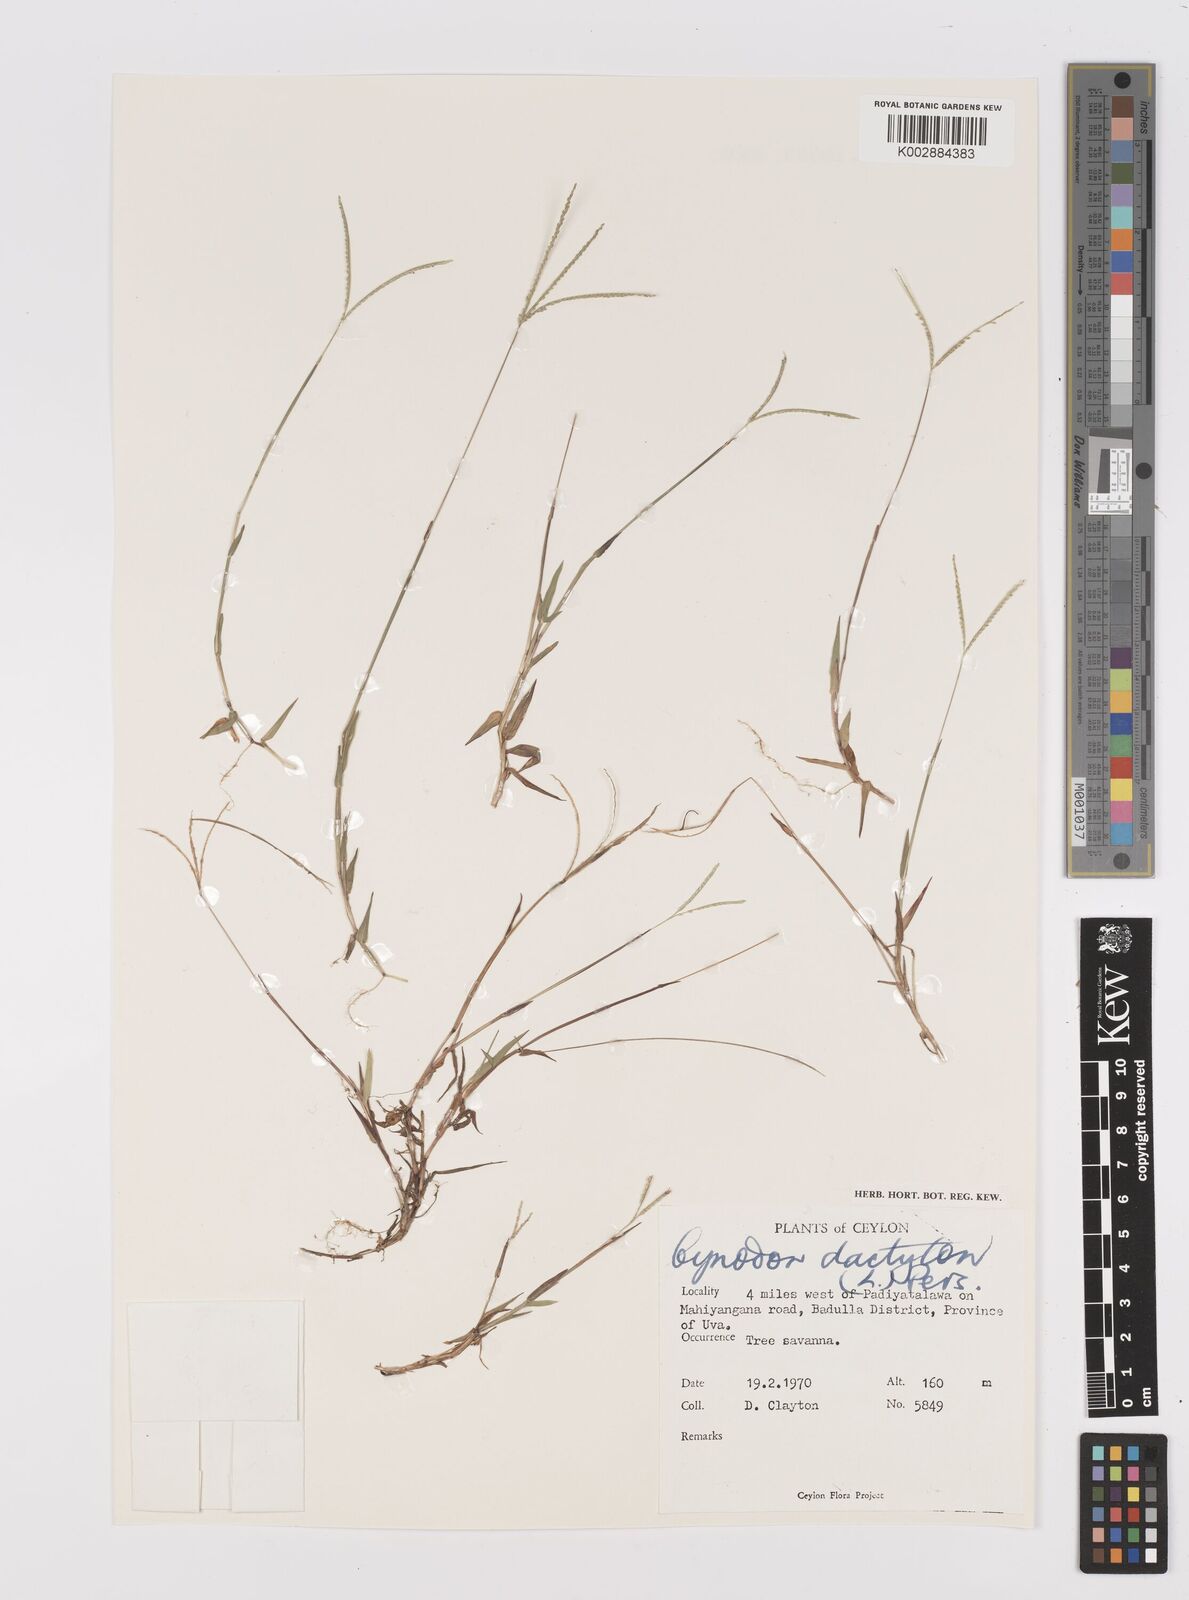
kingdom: Plantae
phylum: Tracheophyta
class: Liliopsida
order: Poales
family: Poaceae
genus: Cynodon
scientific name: Cynodon dactylon
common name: Bermuda grass
